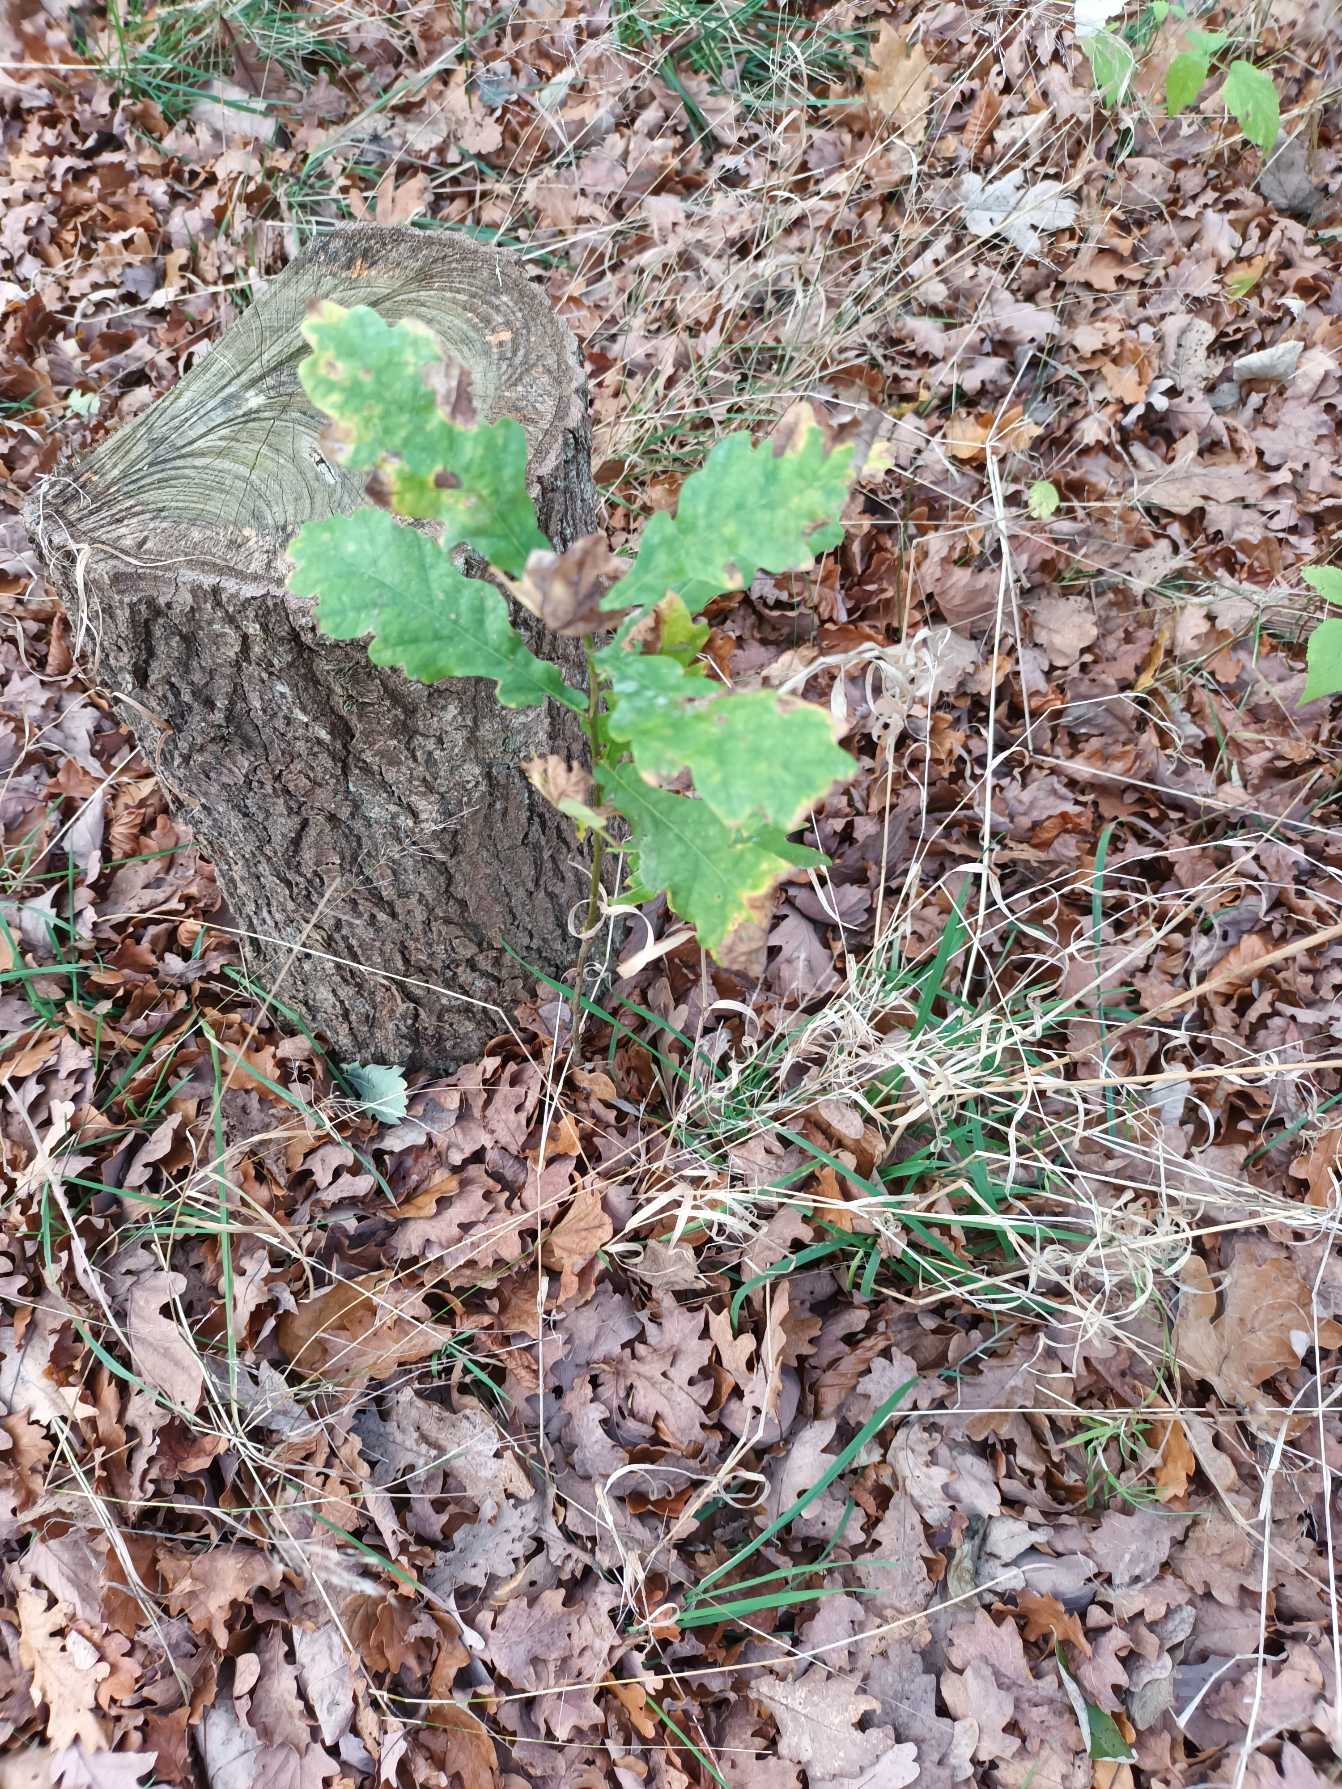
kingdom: Plantae
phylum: Tracheophyta
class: Magnoliopsida
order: Fagales
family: Fagaceae
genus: Quercus
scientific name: Quercus robur
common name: Stilk-eg/almindelig eg
